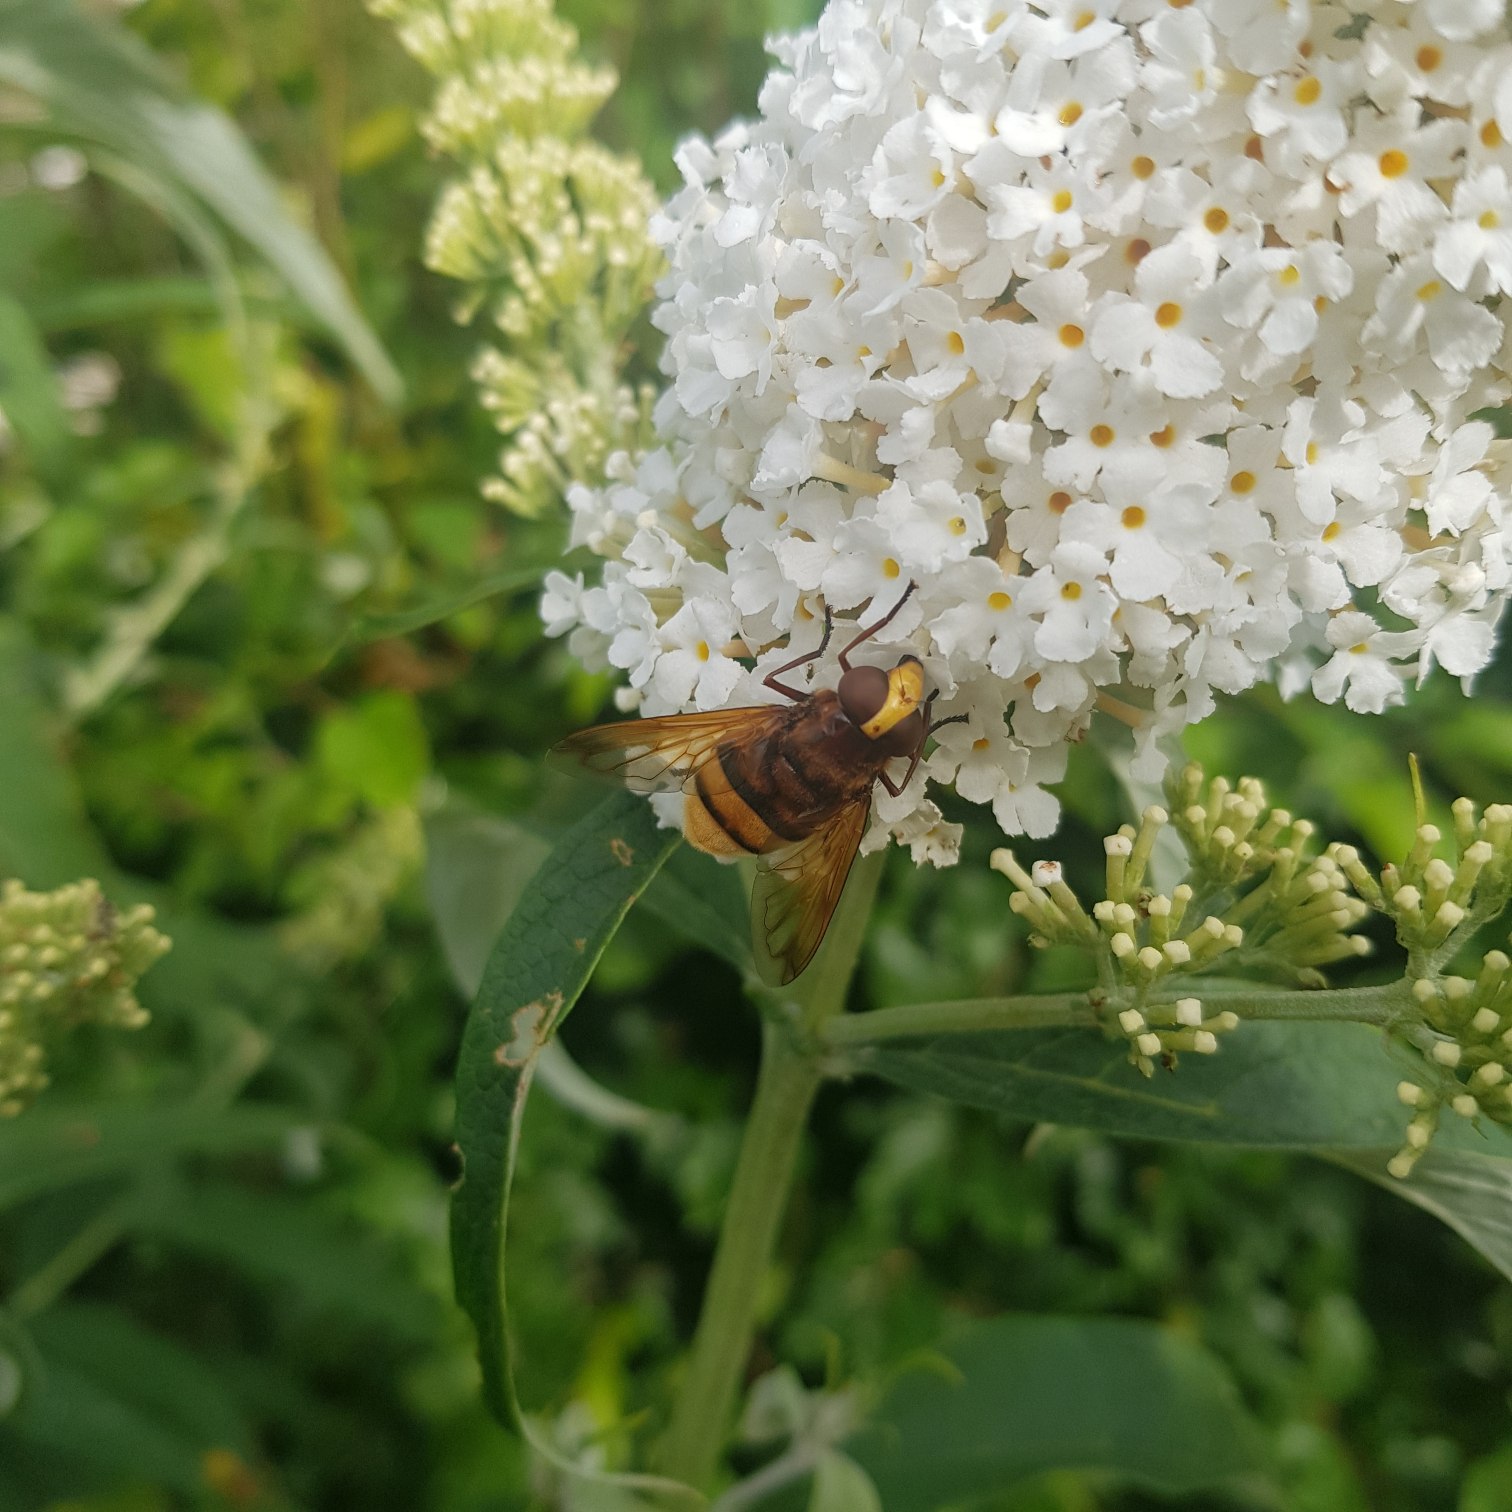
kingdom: Animalia
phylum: Arthropoda
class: Insecta
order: Diptera
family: Syrphidae
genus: Volucella
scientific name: Volucella zonaria
